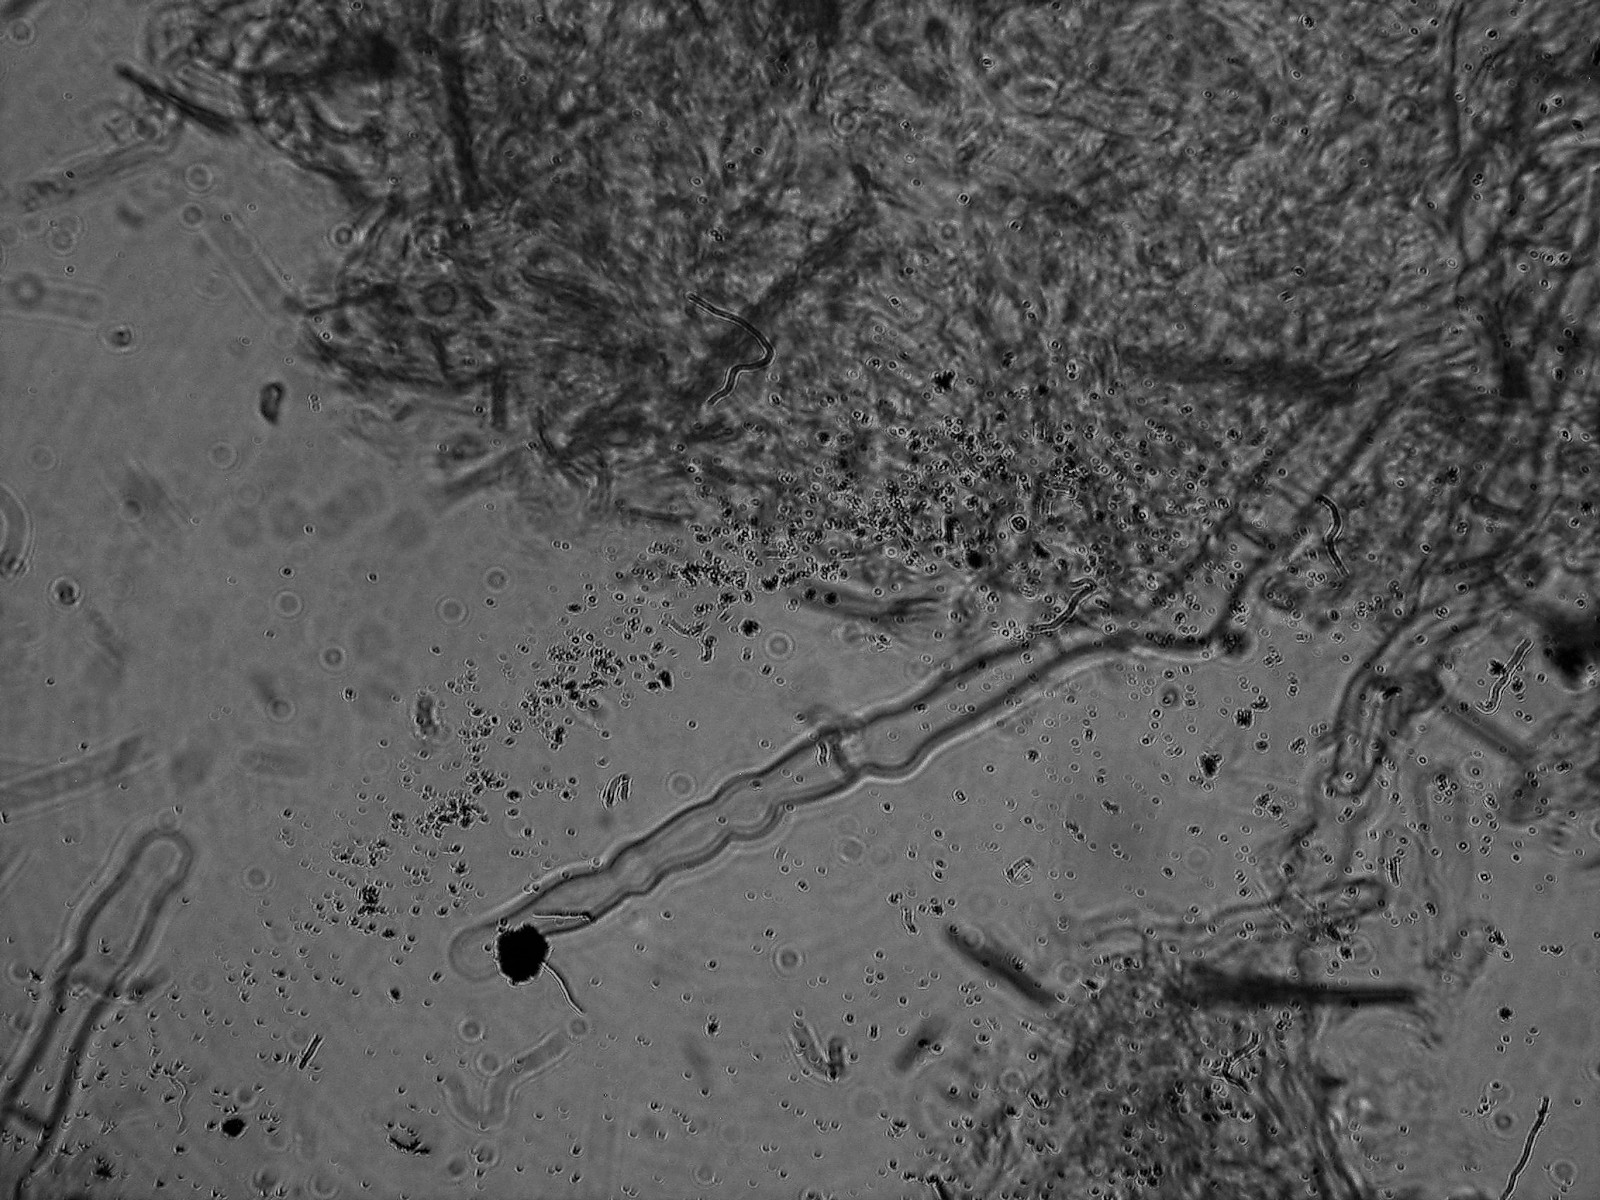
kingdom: Fungi
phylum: Basidiomycota
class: Agaricomycetes
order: Hymenochaetales
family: Hyphodontiaceae
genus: Hyphodontia
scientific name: Hyphodontia pallidula
